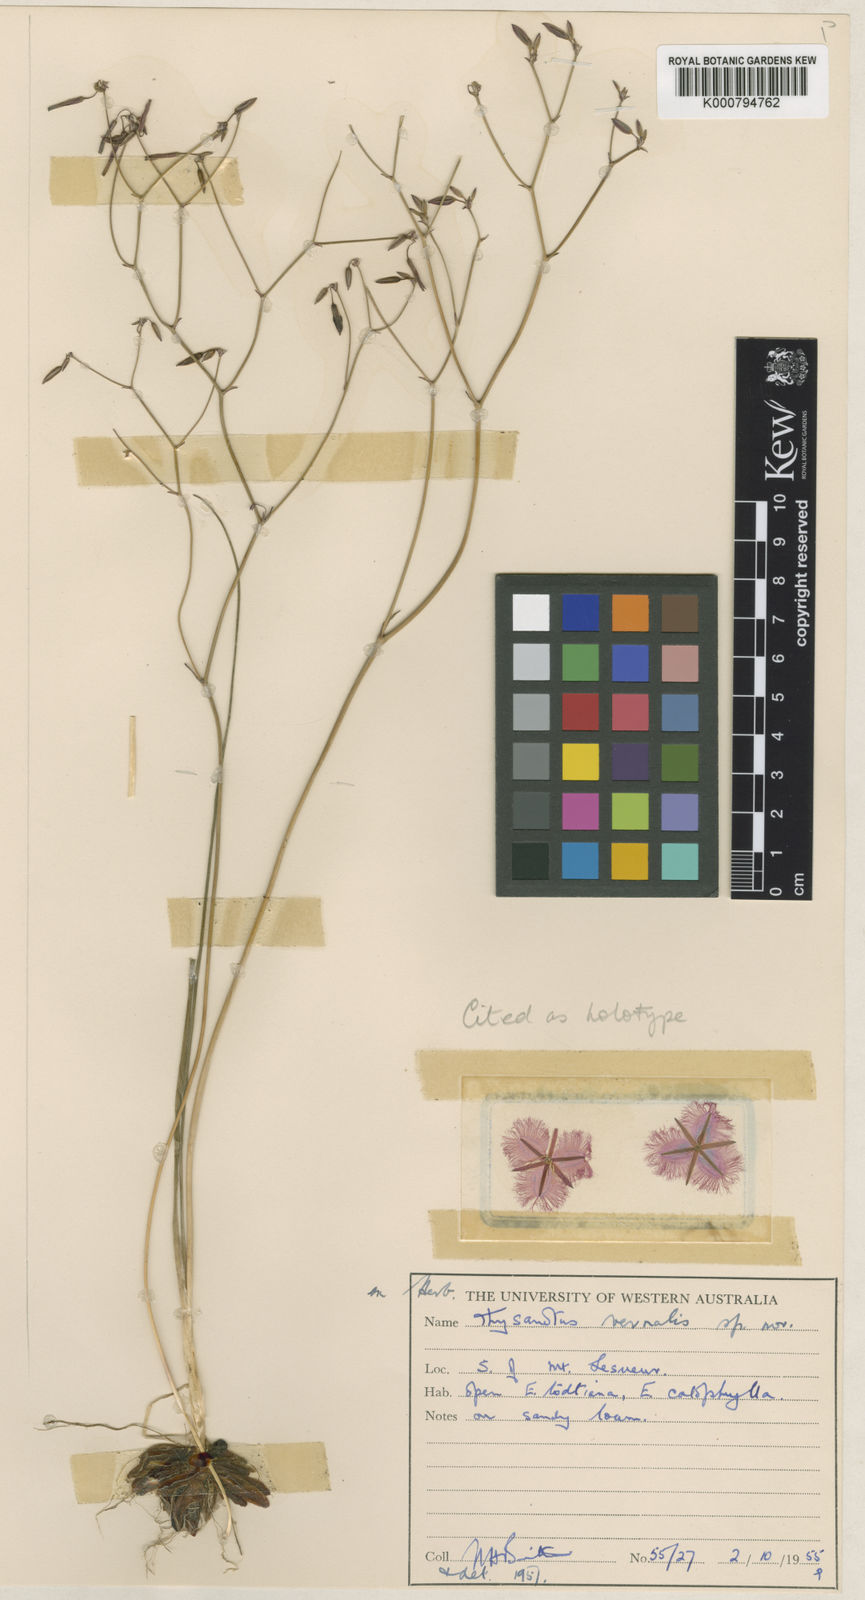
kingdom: Plantae
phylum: Tracheophyta
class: Liliopsida
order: Asparagales
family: Asparagaceae
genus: Thysanotus
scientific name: Thysanotus vernalis
